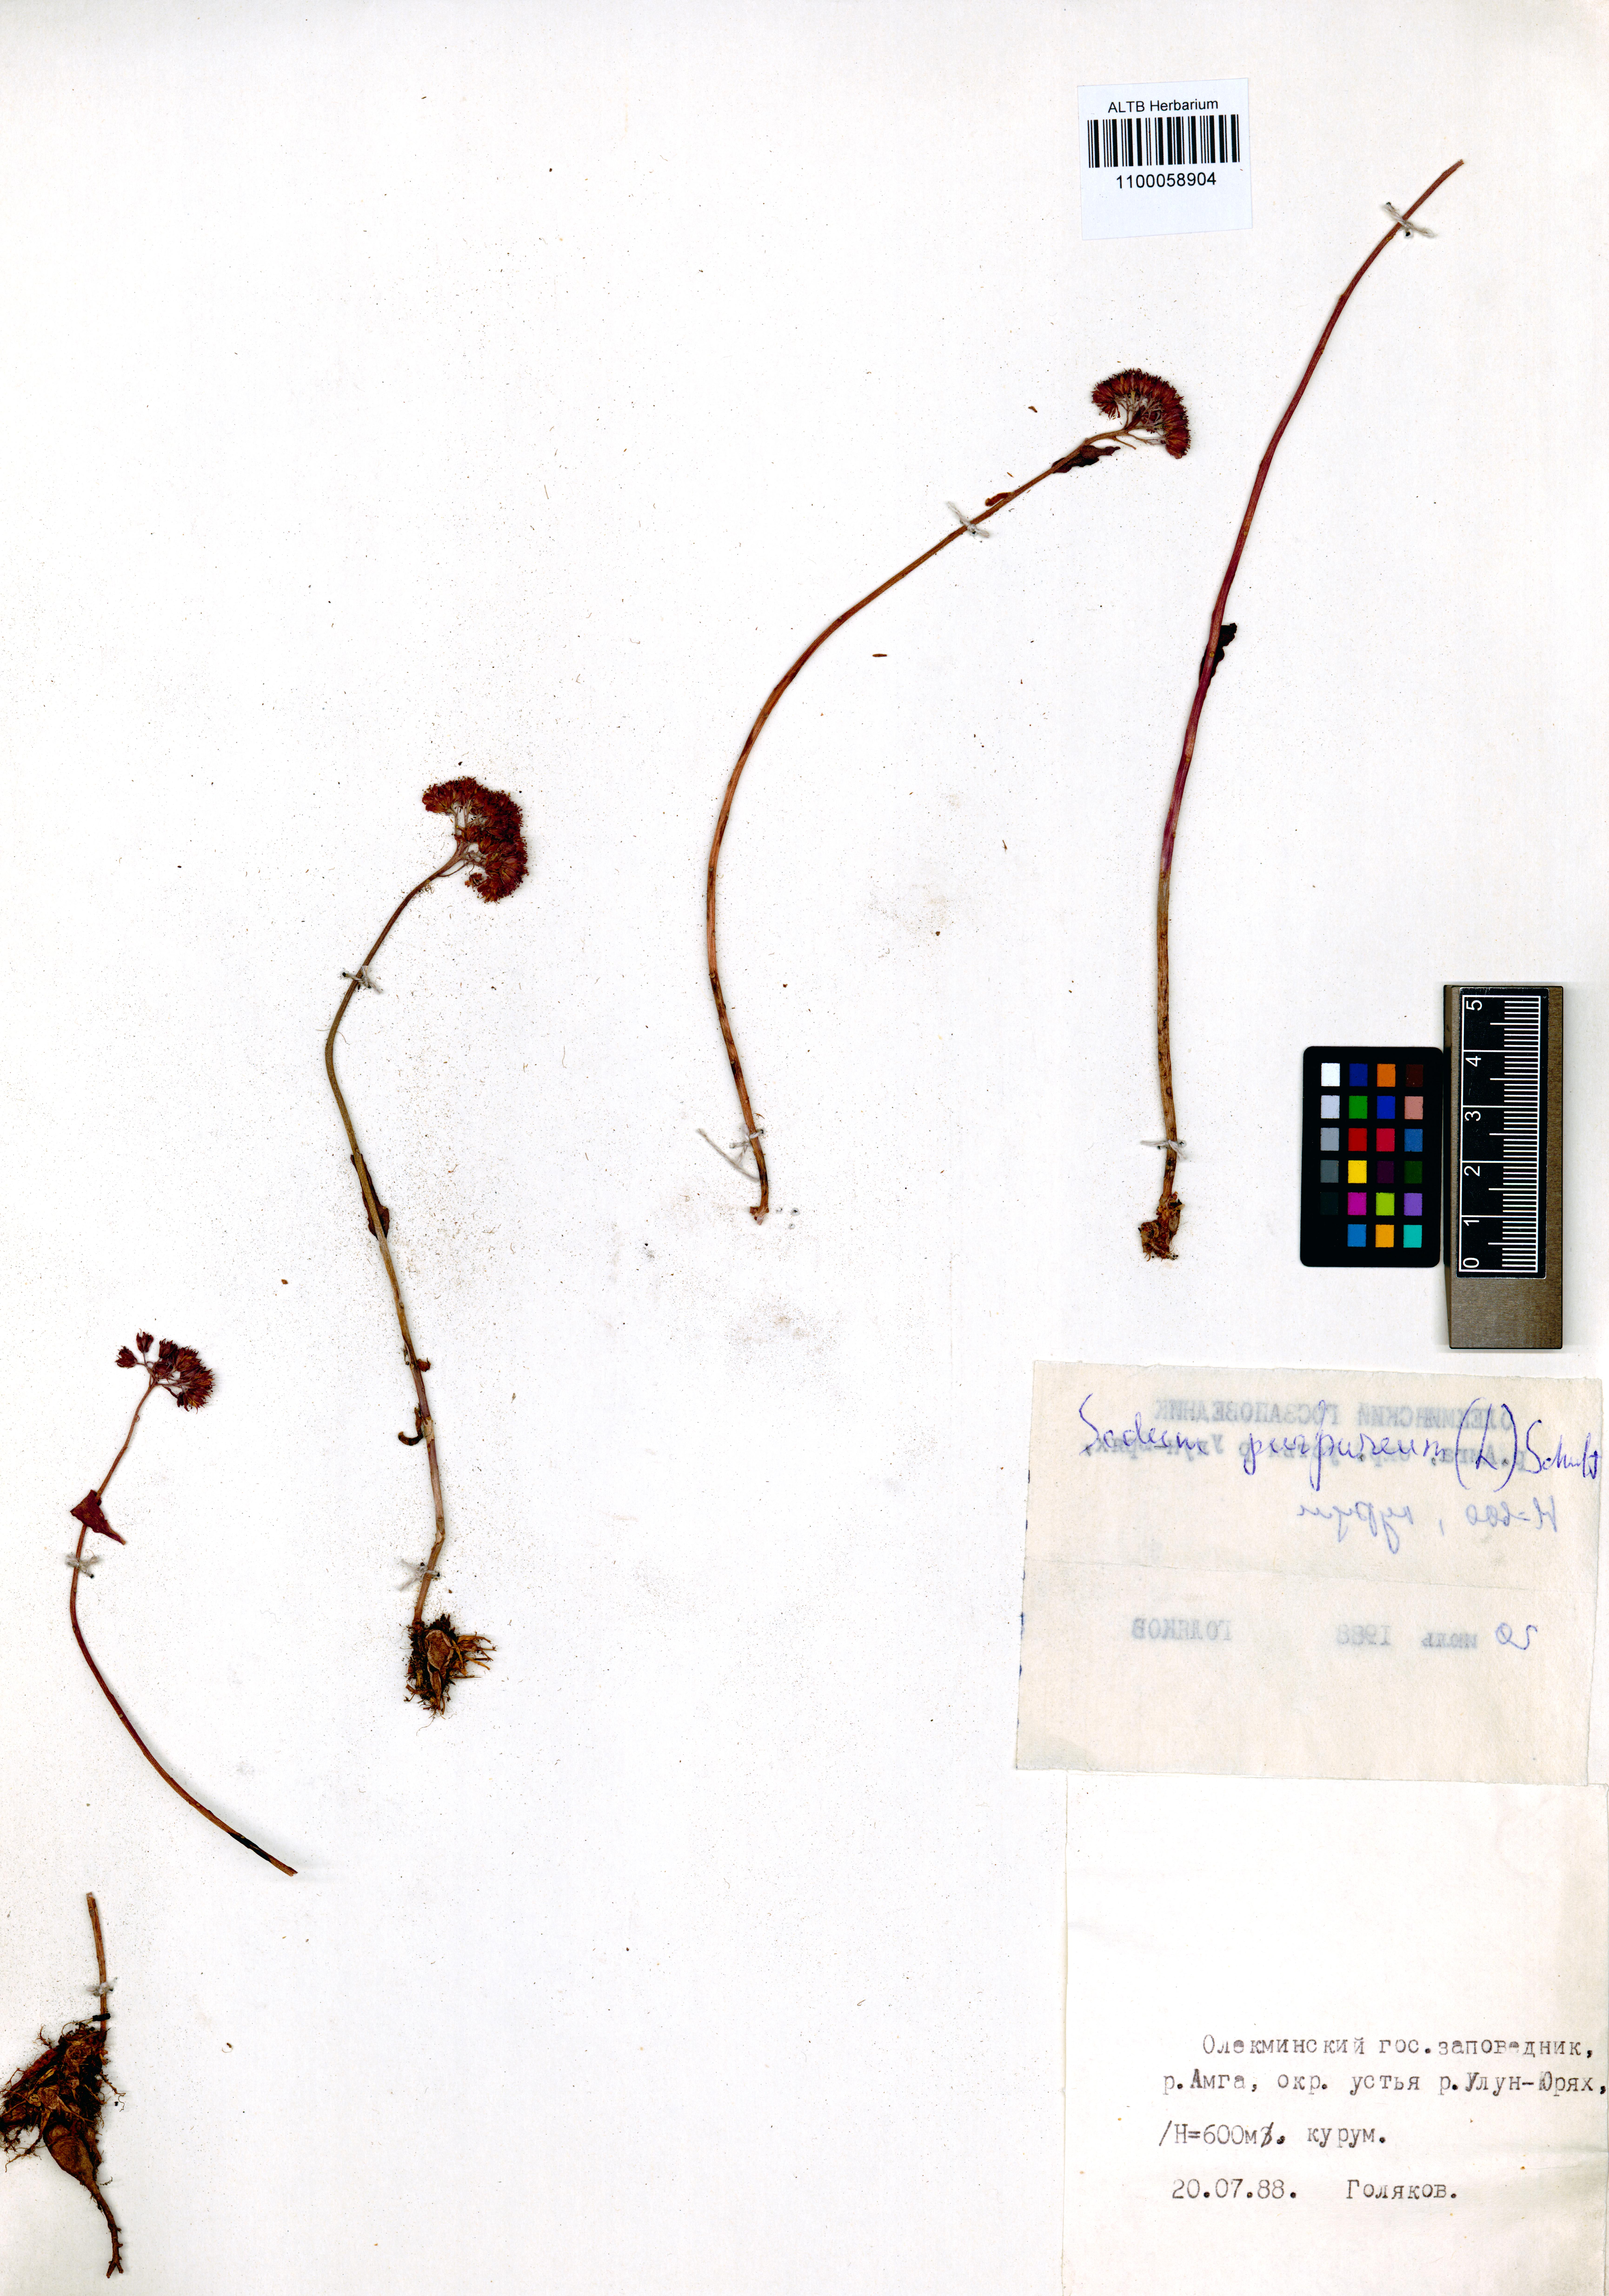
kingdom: Plantae
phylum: Tracheophyta
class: Magnoliopsida
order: Saxifragales
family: Crassulaceae
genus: Hylotelephium
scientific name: Hylotelephium telephium
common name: Live-forever
